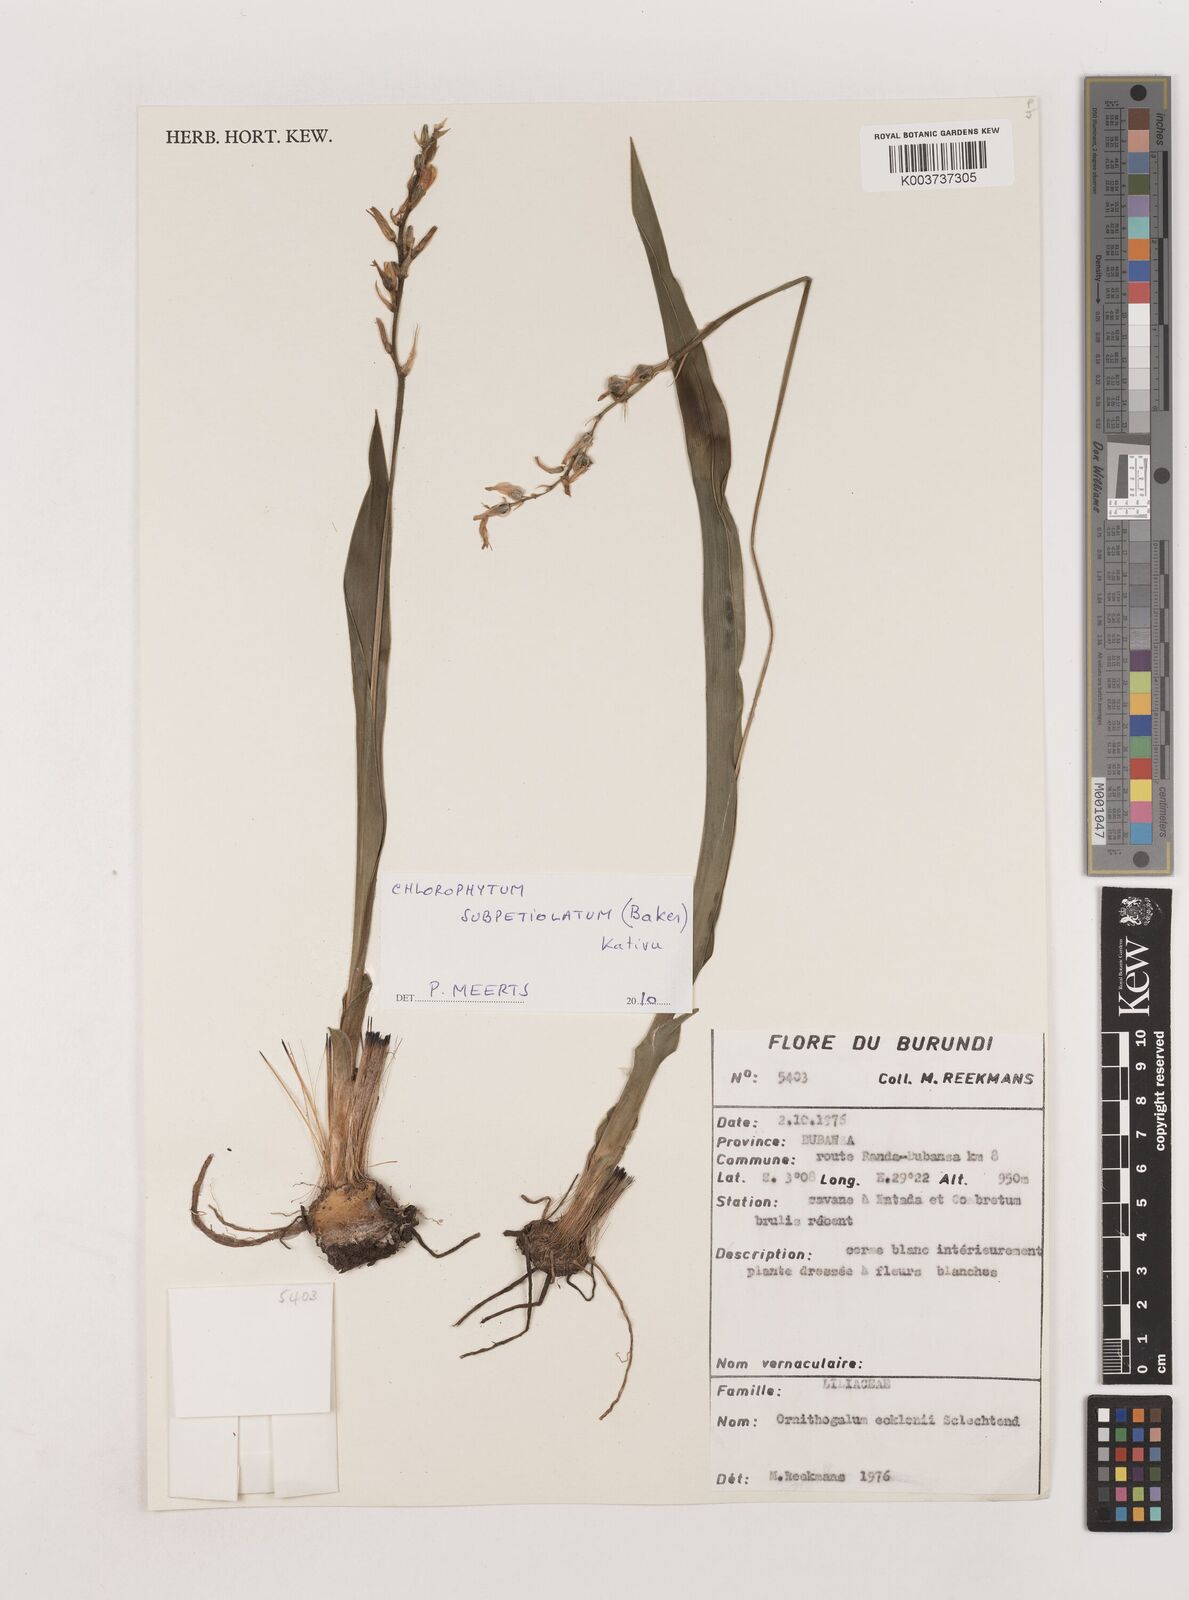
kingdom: Plantae
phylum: Tracheophyta
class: Liliopsida
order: Asparagales
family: Asparagaceae
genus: Chlorophytum
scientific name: Chlorophytum subpetiolatum
